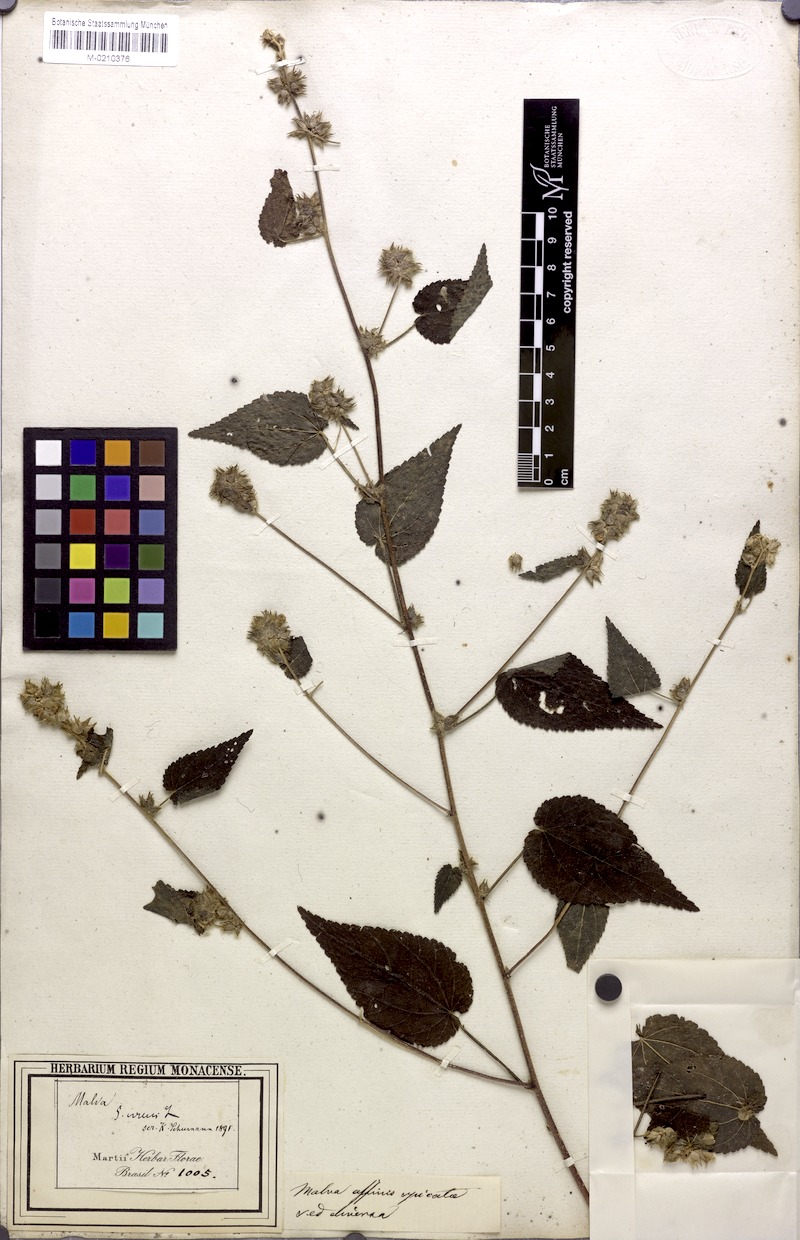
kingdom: Plantae
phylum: Tracheophyta
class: Magnoliopsida
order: Malvales
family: Malvaceae
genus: Sida
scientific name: Sida urens
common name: Tropical fanpetals
